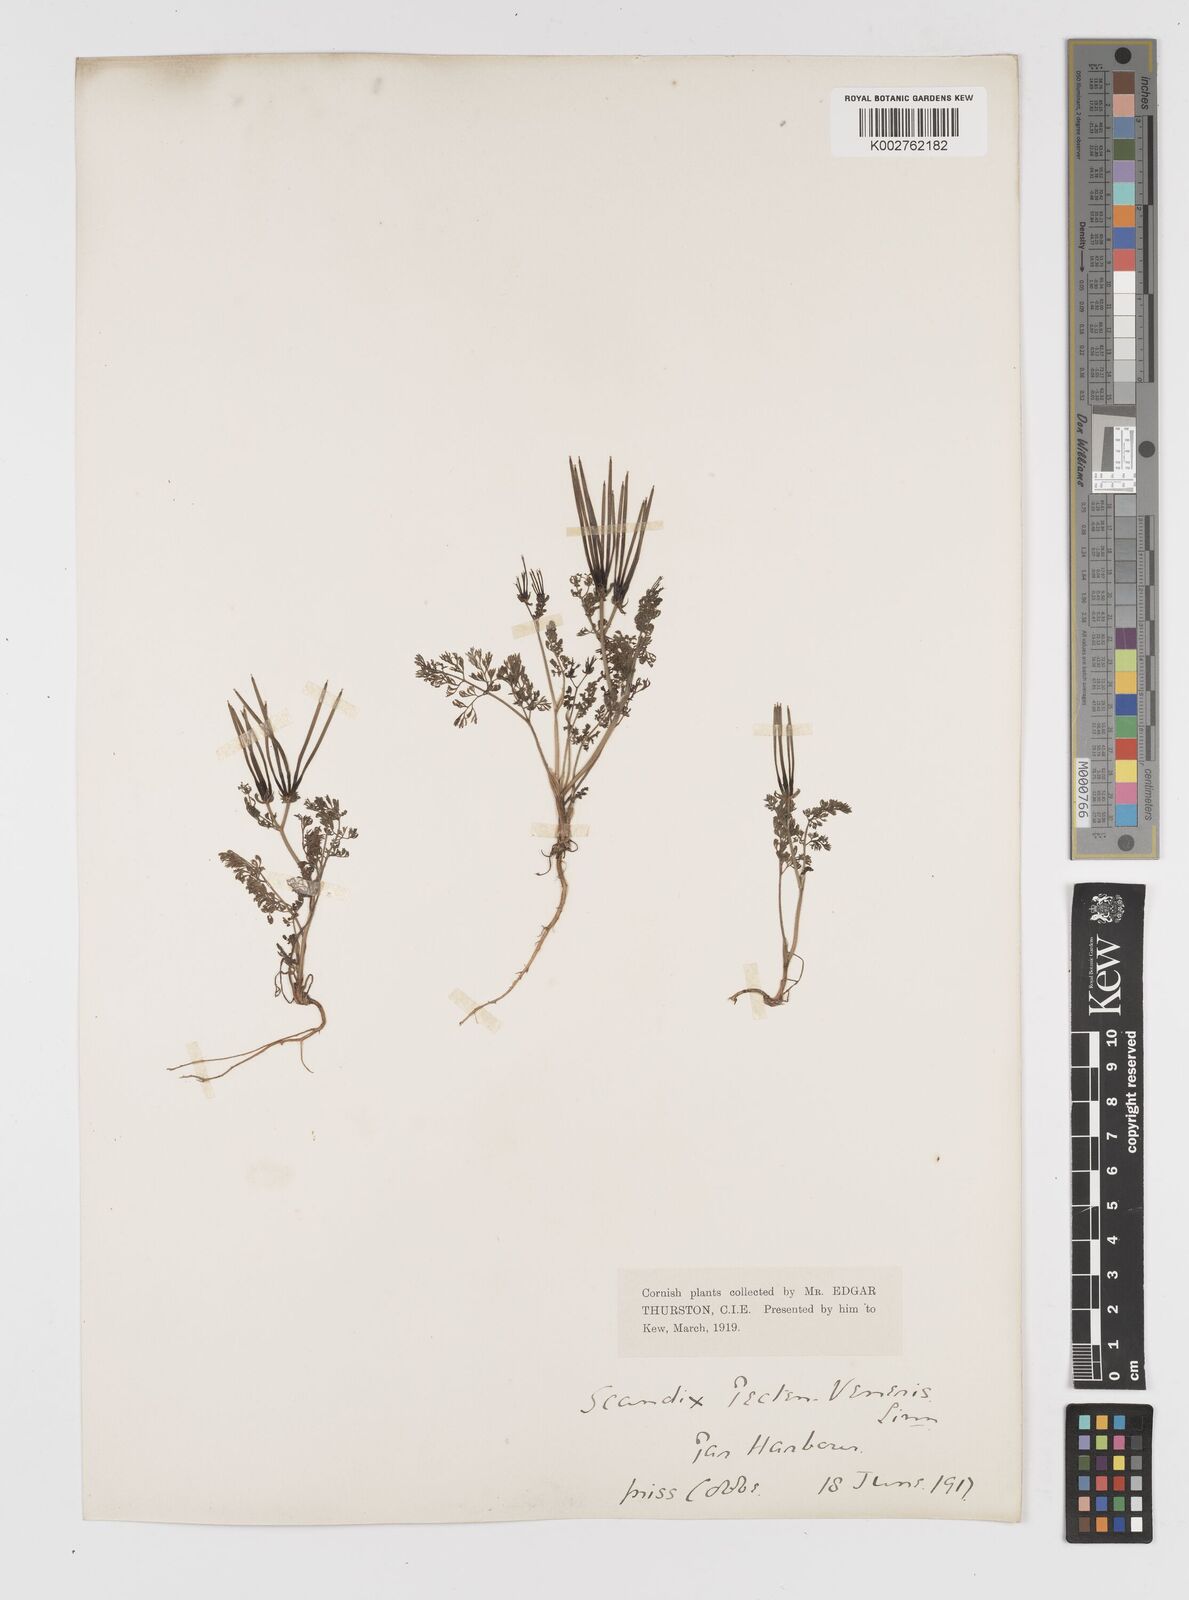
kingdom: Plantae
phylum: Tracheophyta
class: Magnoliopsida
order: Apiales
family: Apiaceae
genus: Scandix
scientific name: Scandix pecten-veneris
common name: Shepherd's-needle
